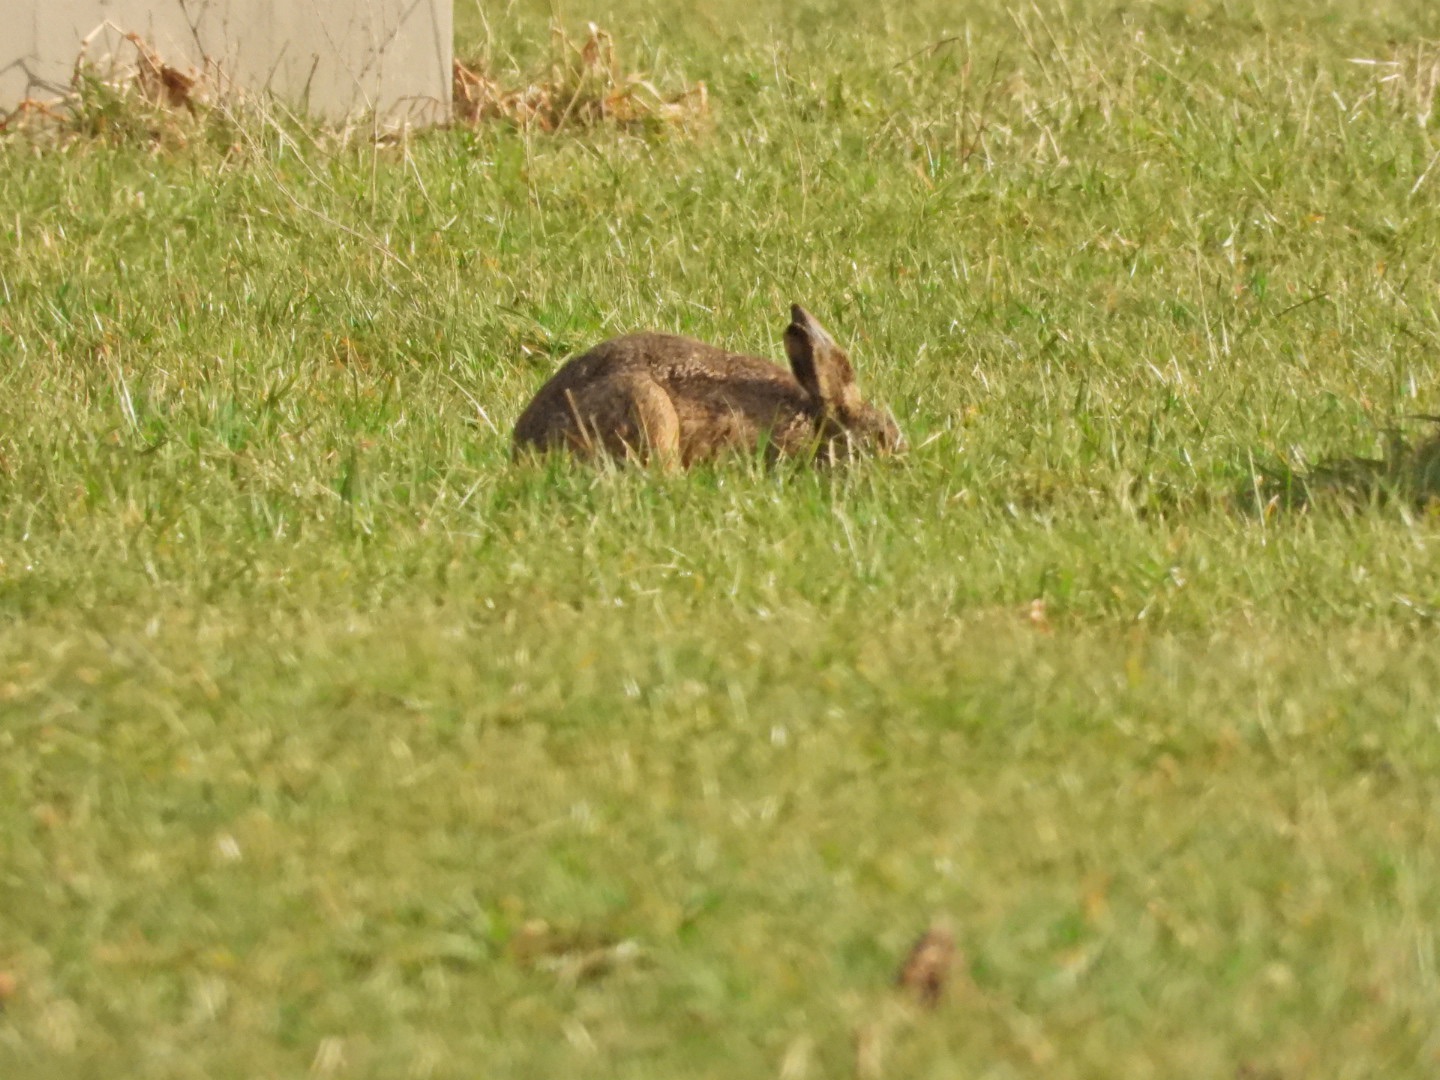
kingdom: Animalia
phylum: Chordata
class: Mammalia
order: Lagomorpha
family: Leporidae
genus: Lepus
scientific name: Lepus europaeus
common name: Hare
